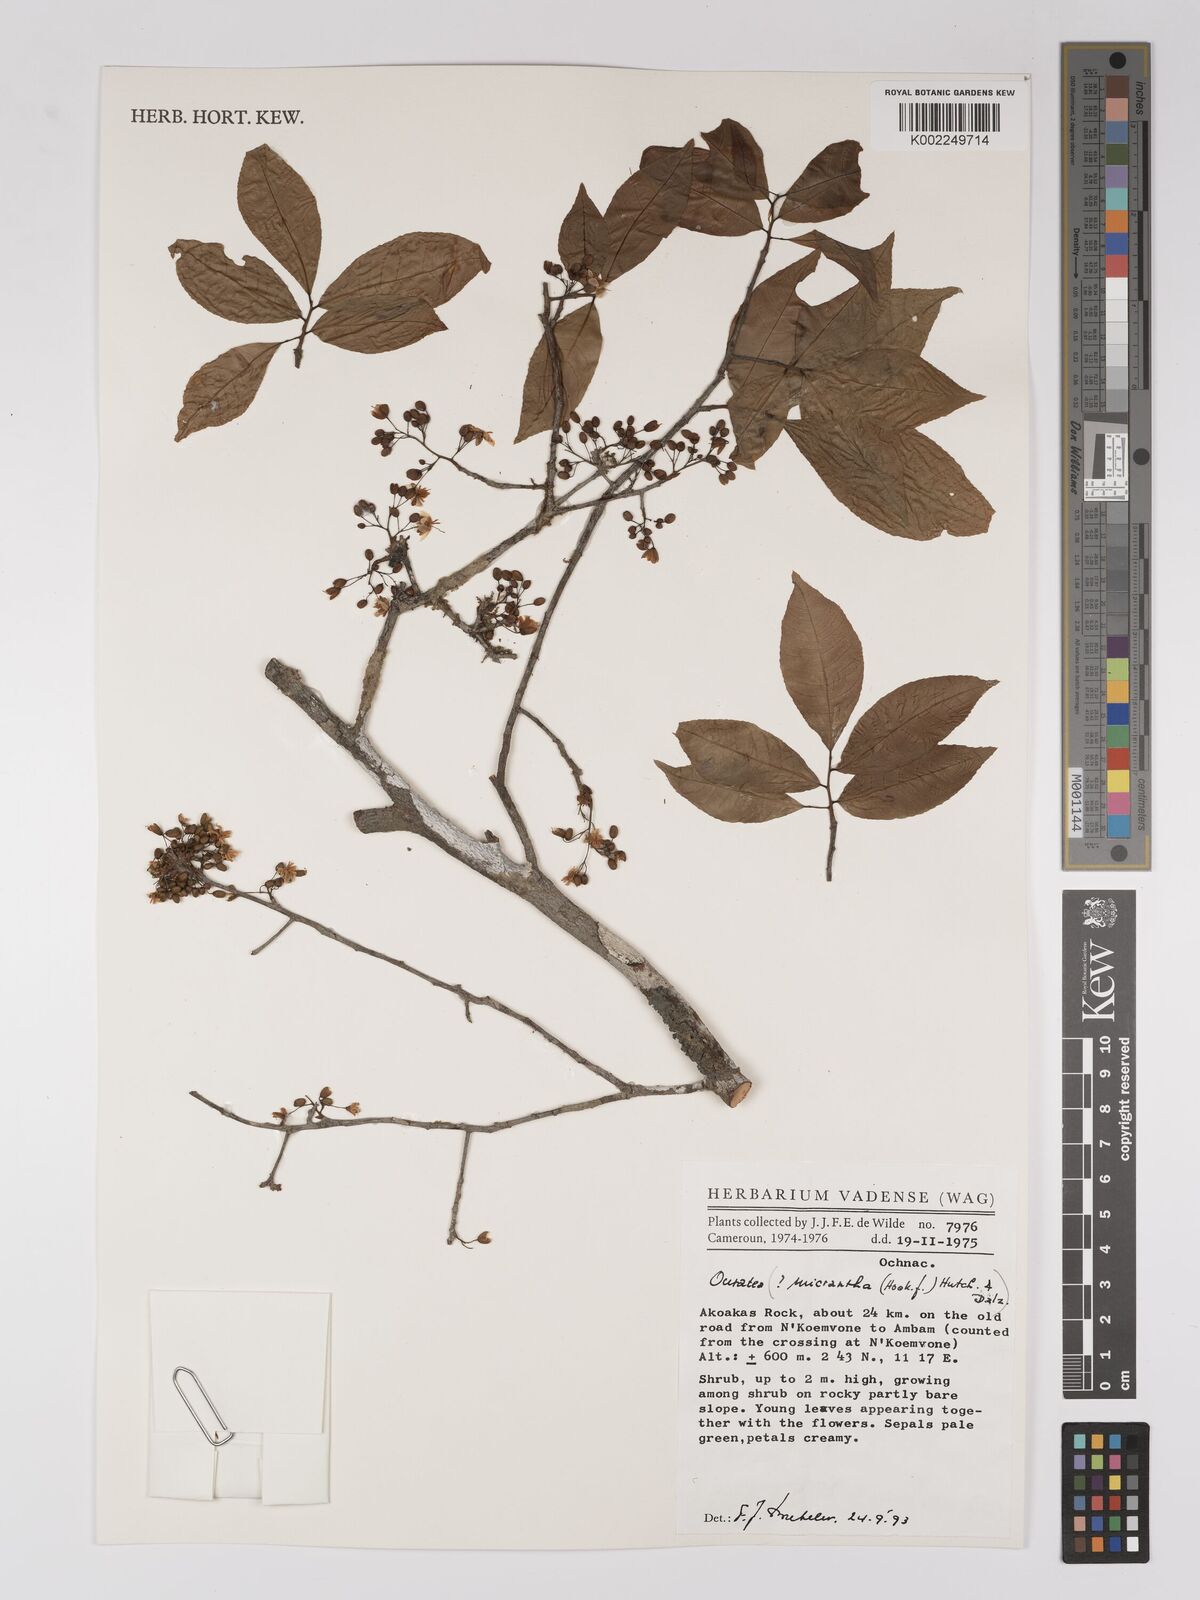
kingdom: Plantae
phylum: Tracheophyta
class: Magnoliopsida
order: Malpighiales
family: Ochnaceae
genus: Campylospermum
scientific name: Campylospermum
